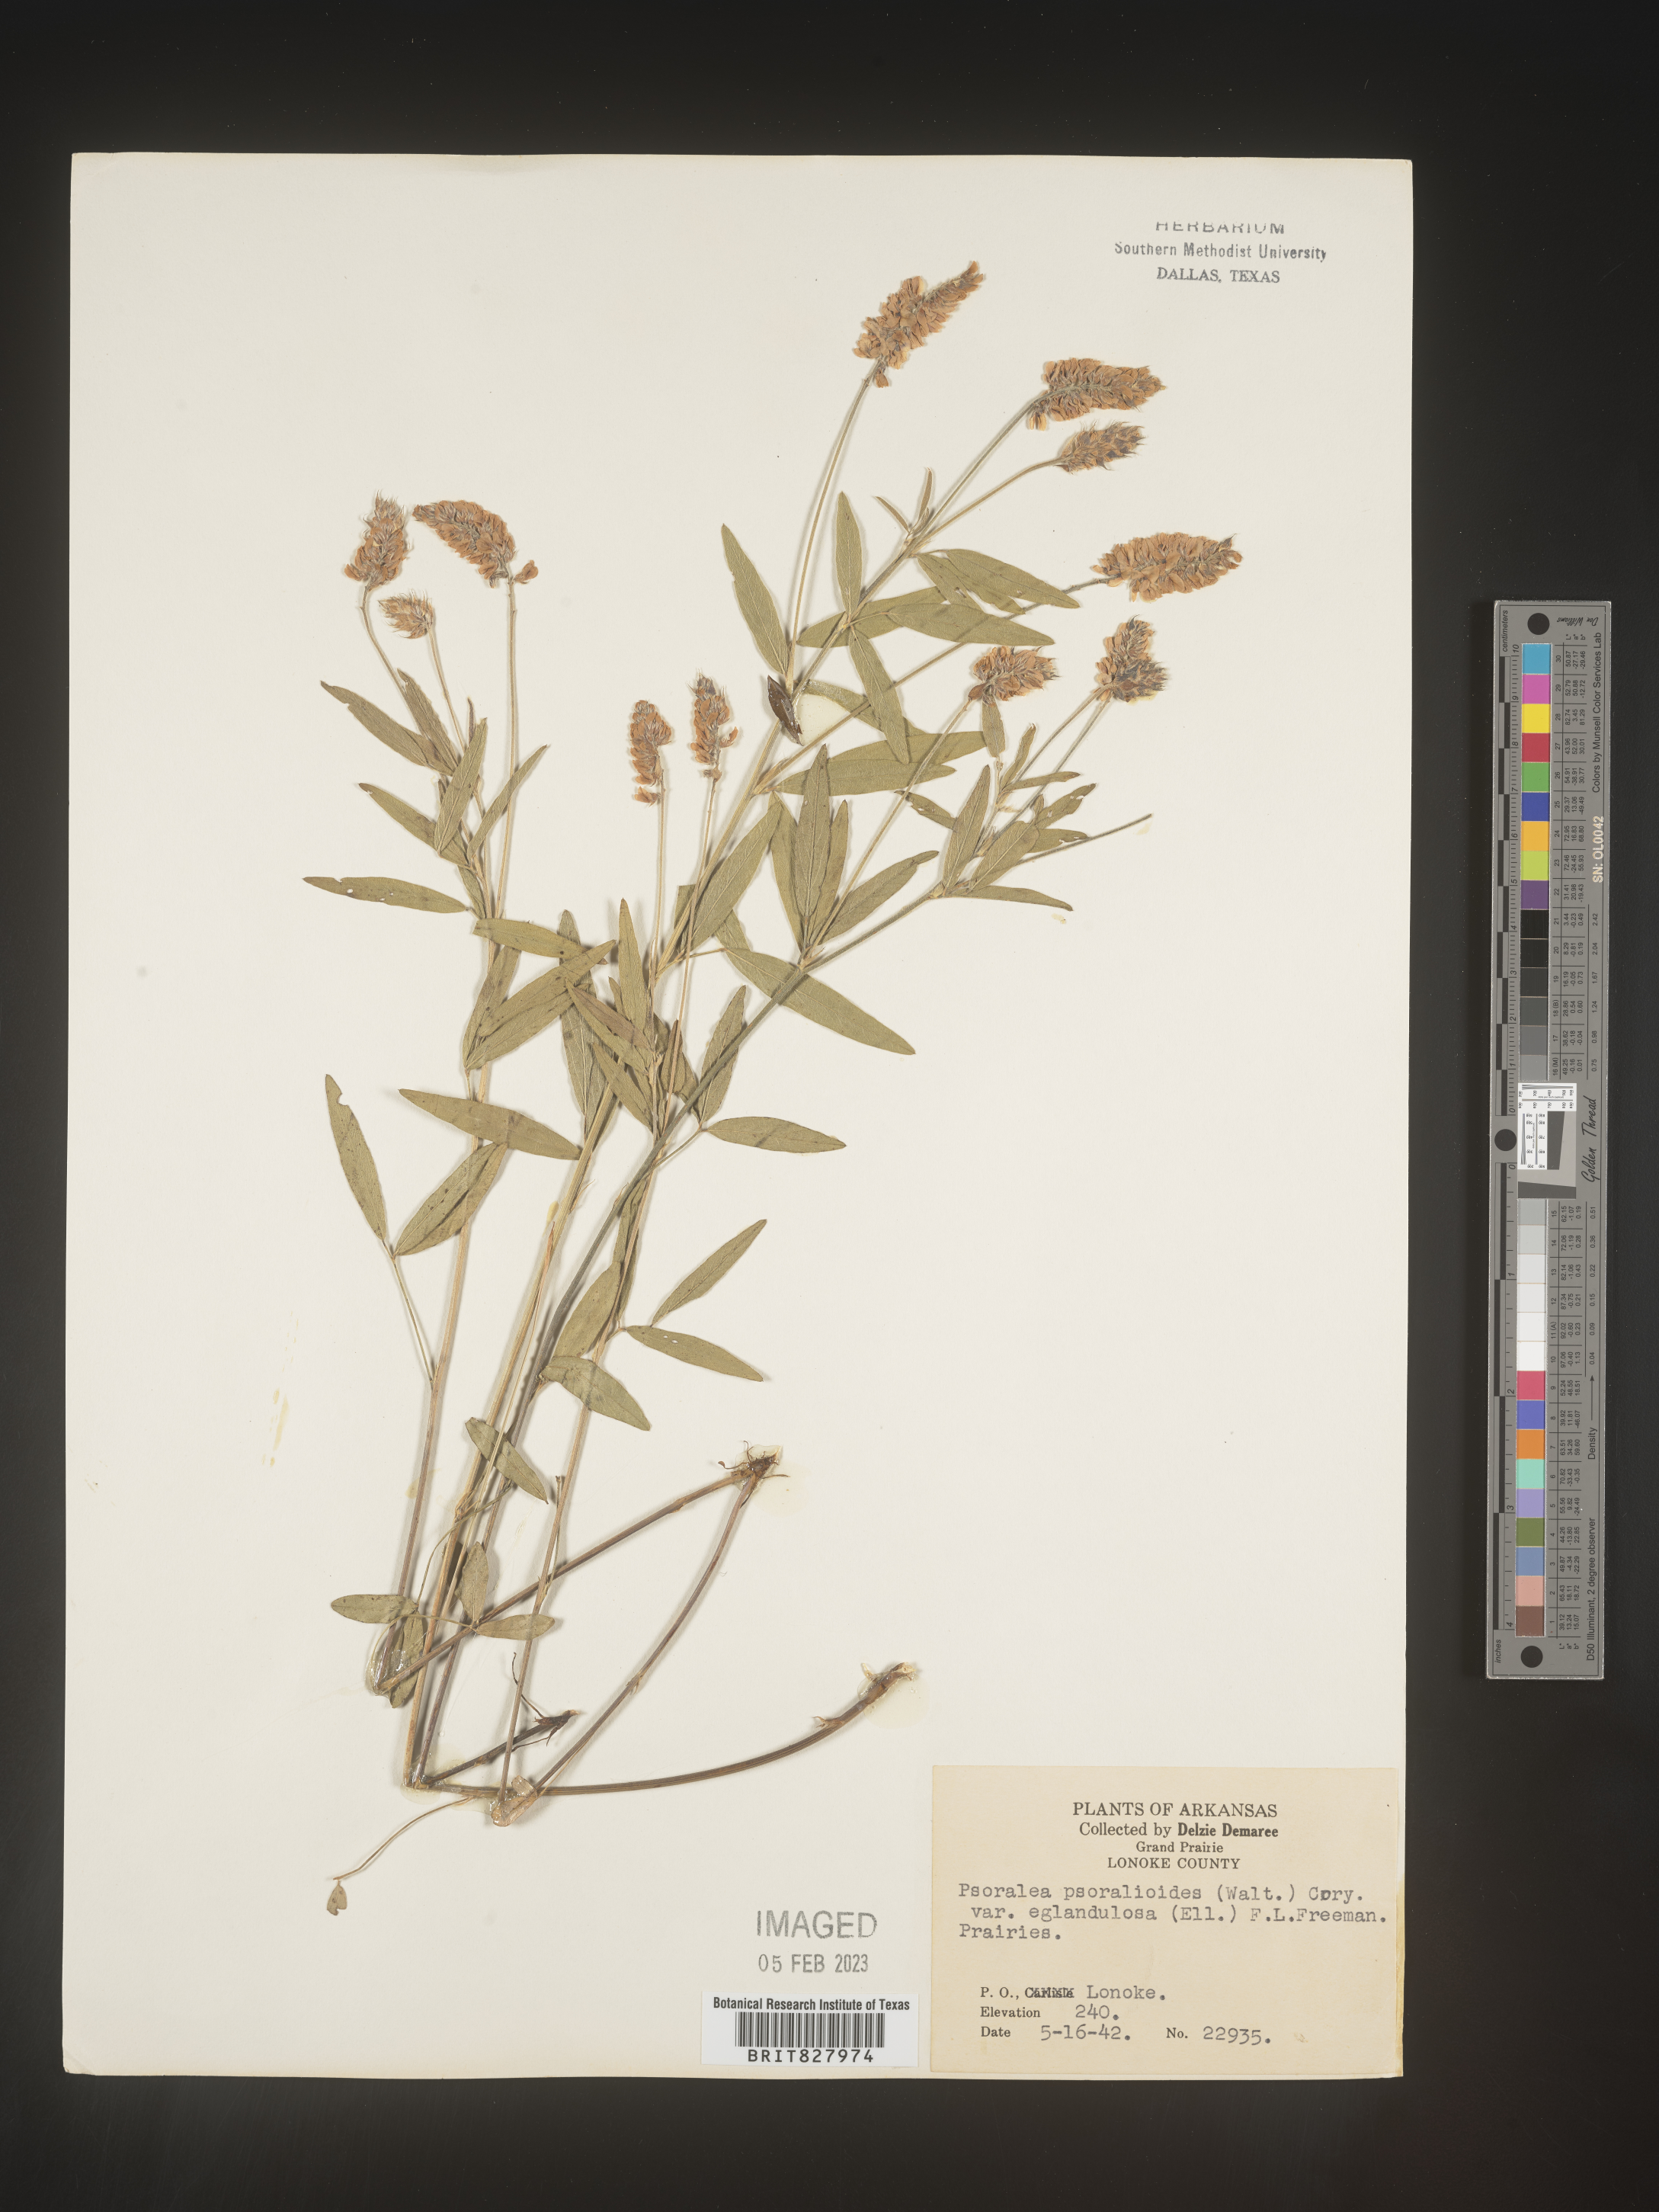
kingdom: Plantae
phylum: Tracheophyta
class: Magnoliopsida
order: Fabales
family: Fabaceae
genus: Orbexilum
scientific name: Orbexilum pedunculatum
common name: Sampson's snakeroot
